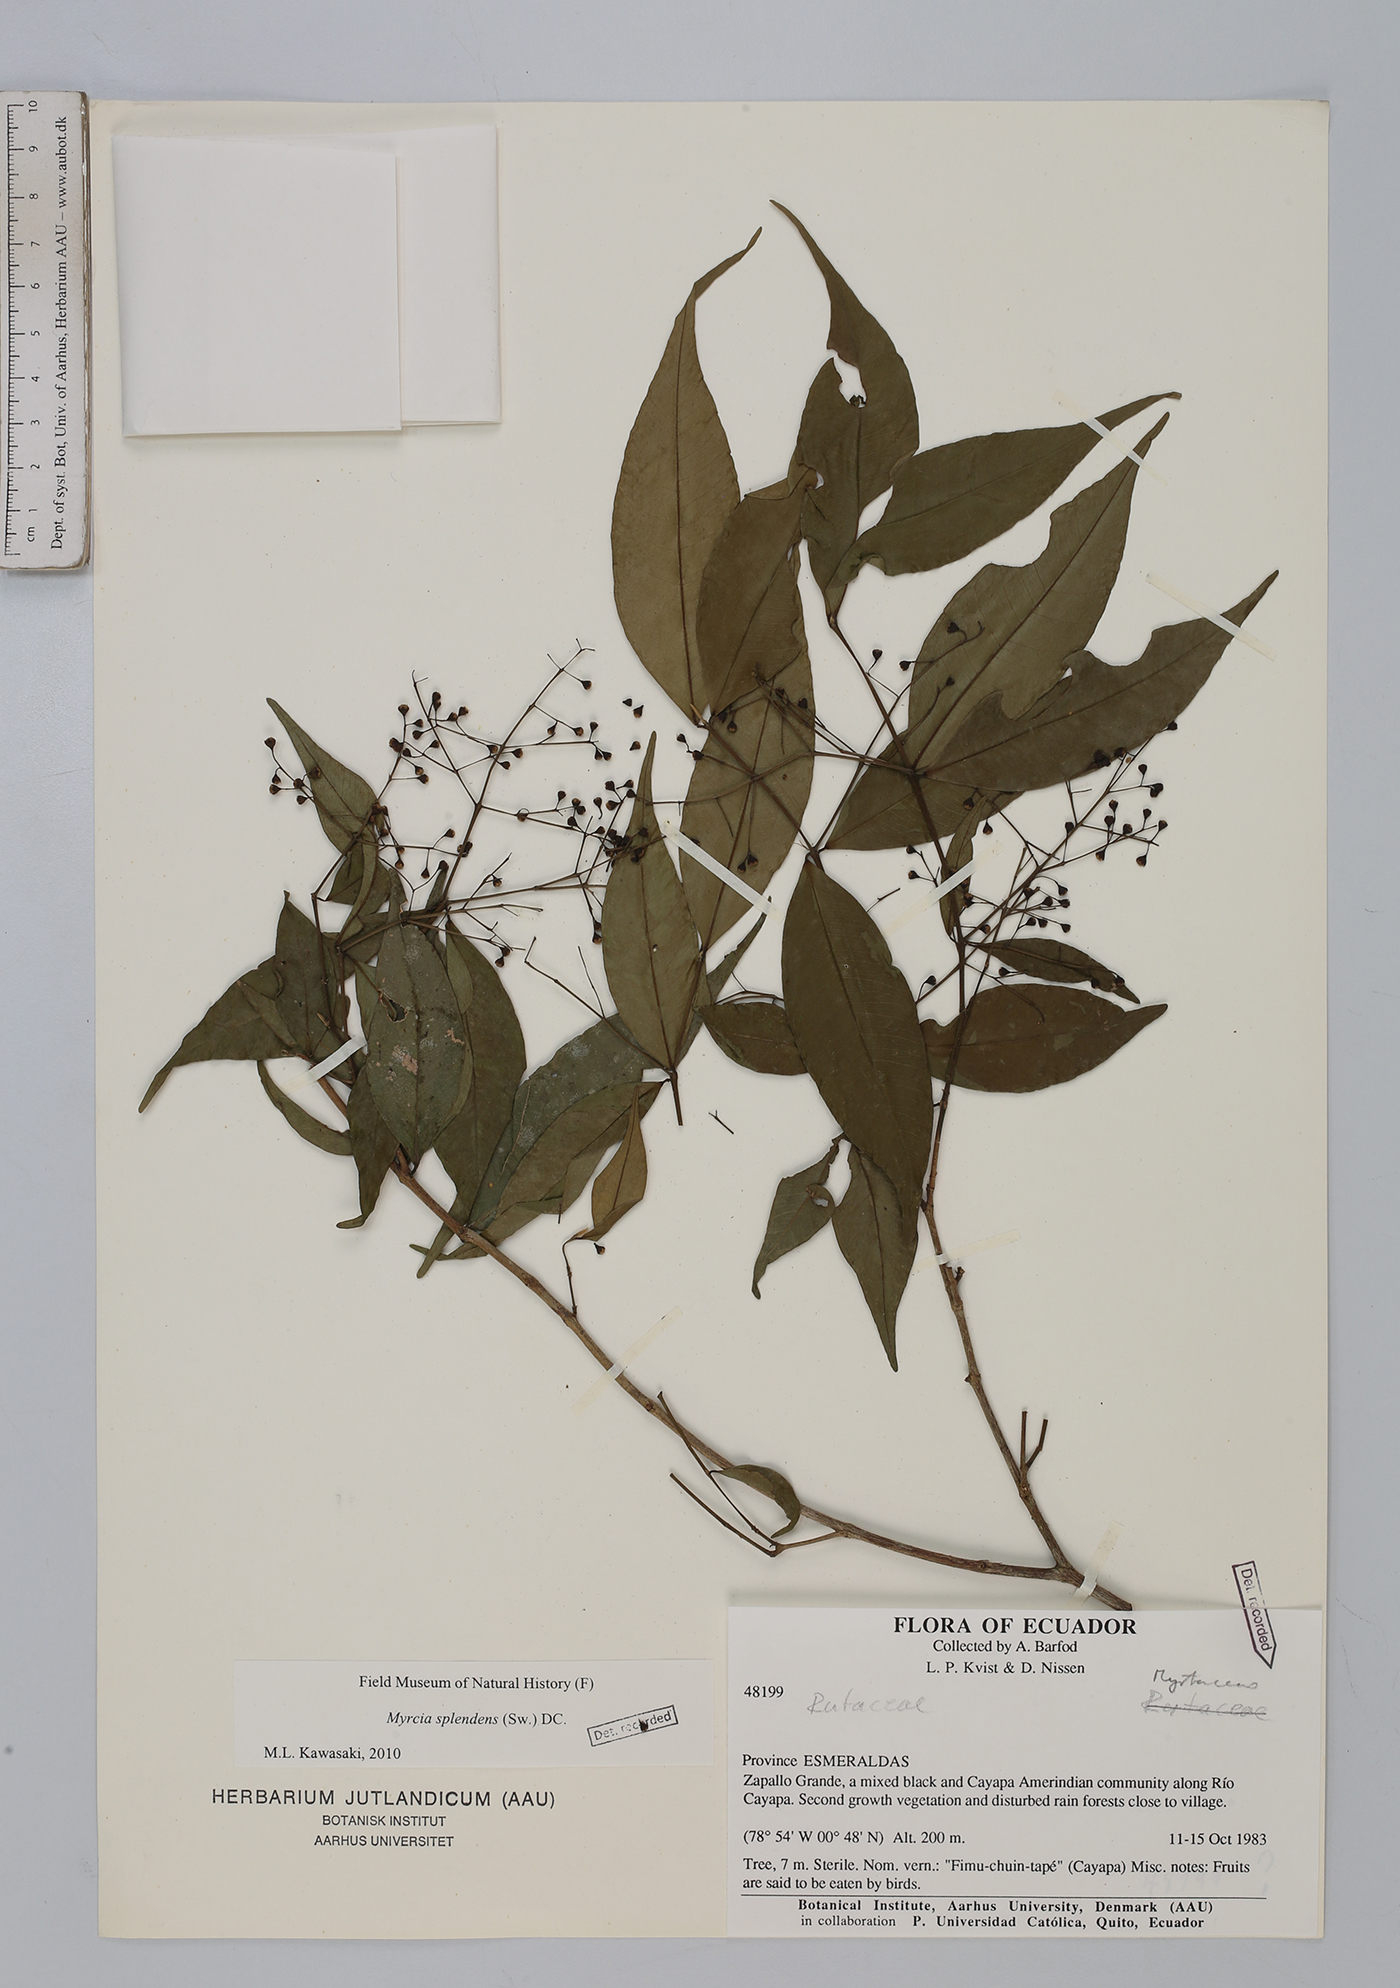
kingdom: Plantae
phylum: Tracheophyta
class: Magnoliopsida
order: Myrtales
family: Myrtaceae
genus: Myrcia
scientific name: Myrcia splendens
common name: Surinam cherry
